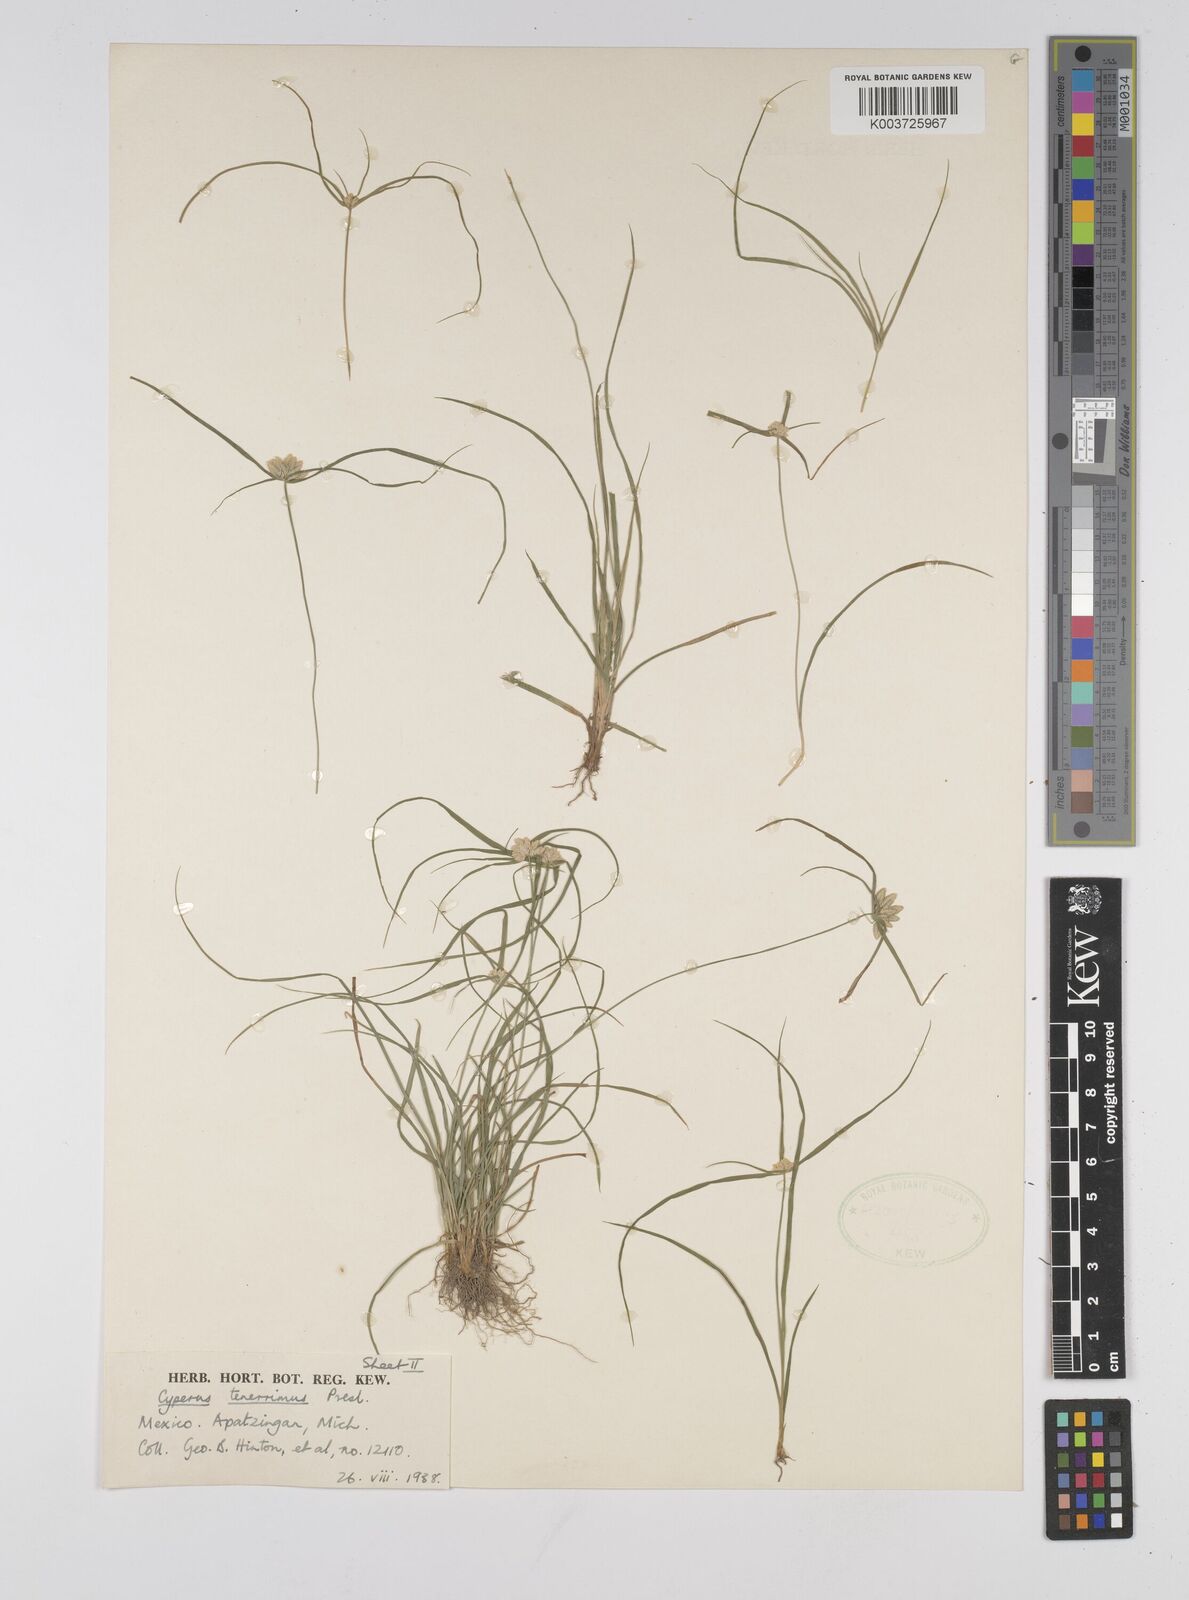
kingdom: Plantae
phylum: Tracheophyta
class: Liliopsida
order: Poales
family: Cyperaceae
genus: Cyperus
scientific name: Cyperus tenerrimus
